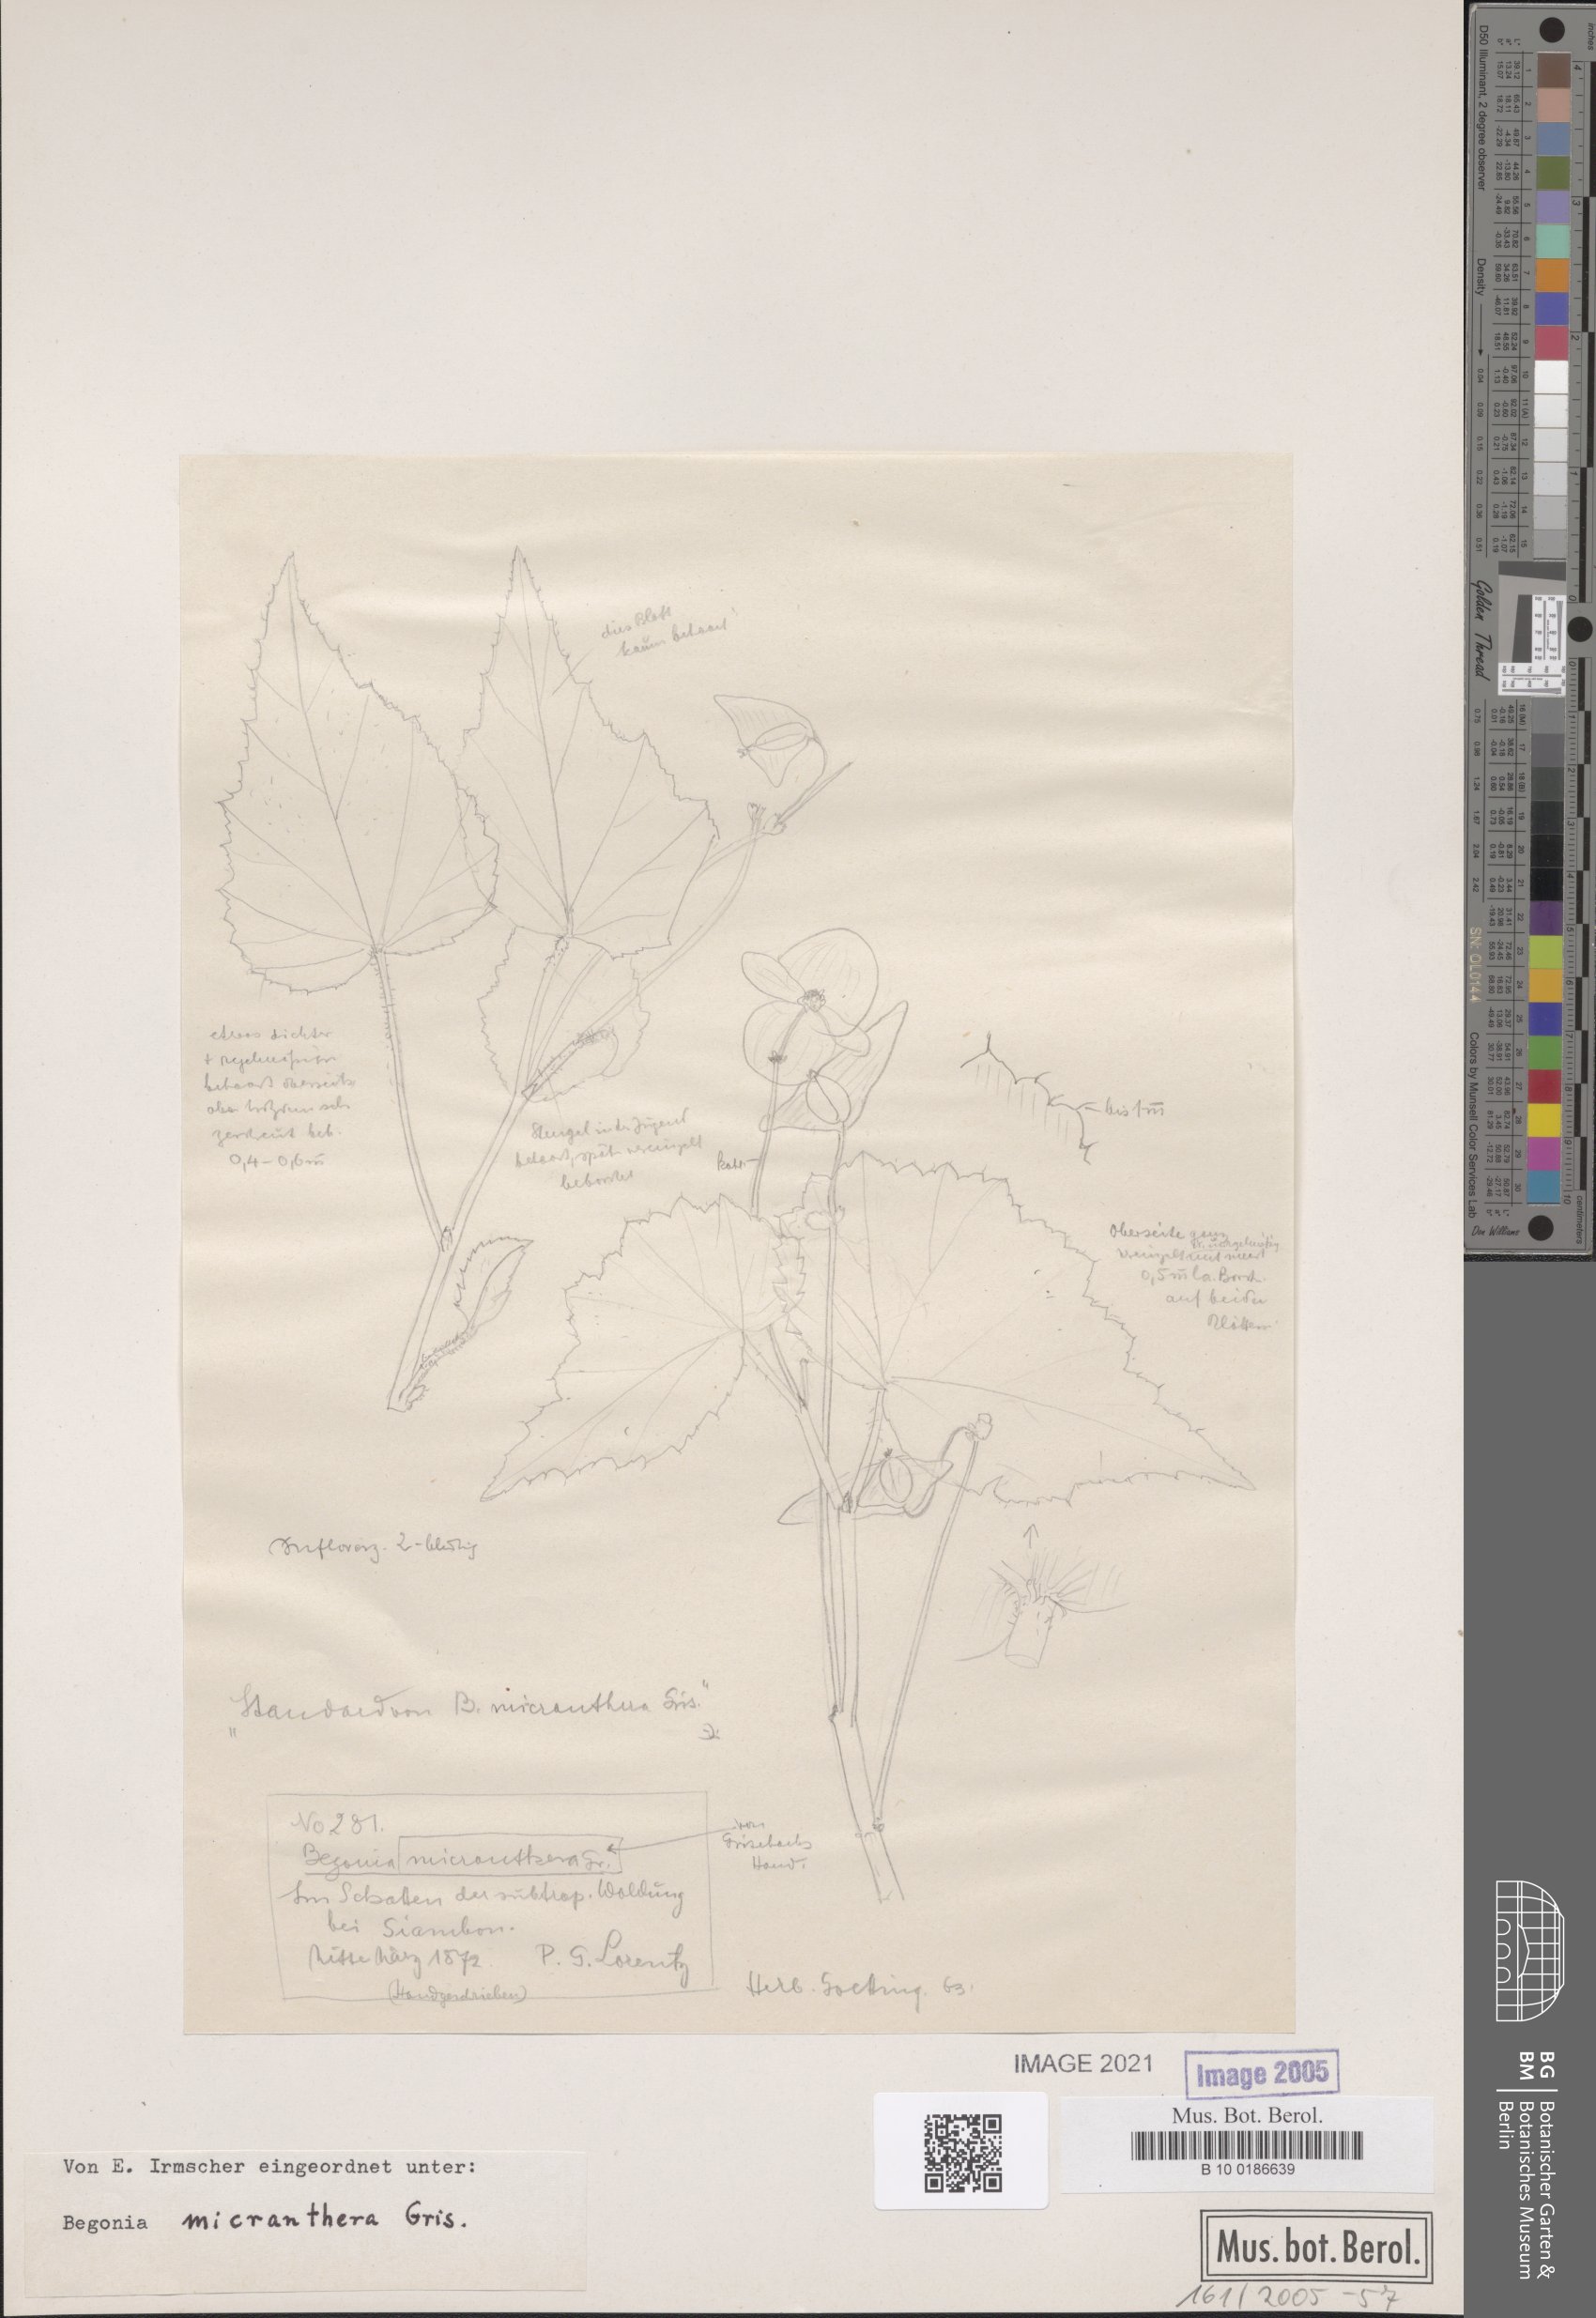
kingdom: Plantae
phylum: Tracheophyta
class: Magnoliopsida
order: Cucurbitales
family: Begoniaceae
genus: Begonia
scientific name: Begonia micranthera
